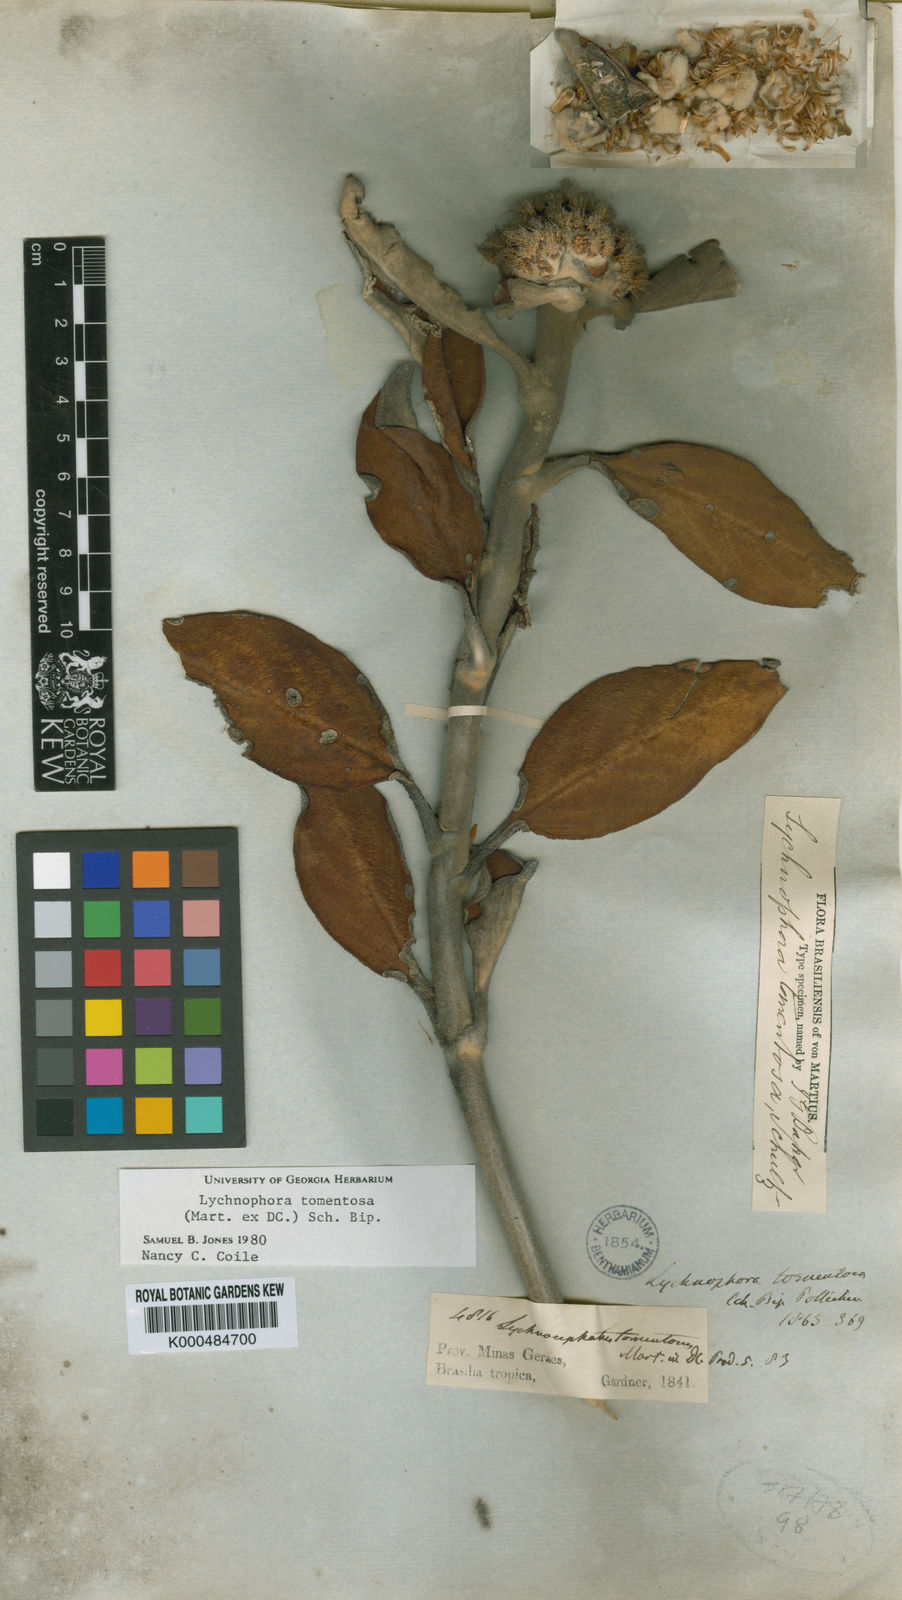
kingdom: Plantae
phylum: Tracheophyta
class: Magnoliopsida
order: Asterales
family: Asteraceae
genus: Lychnocephalus
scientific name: Lychnocephalus tomentosus
